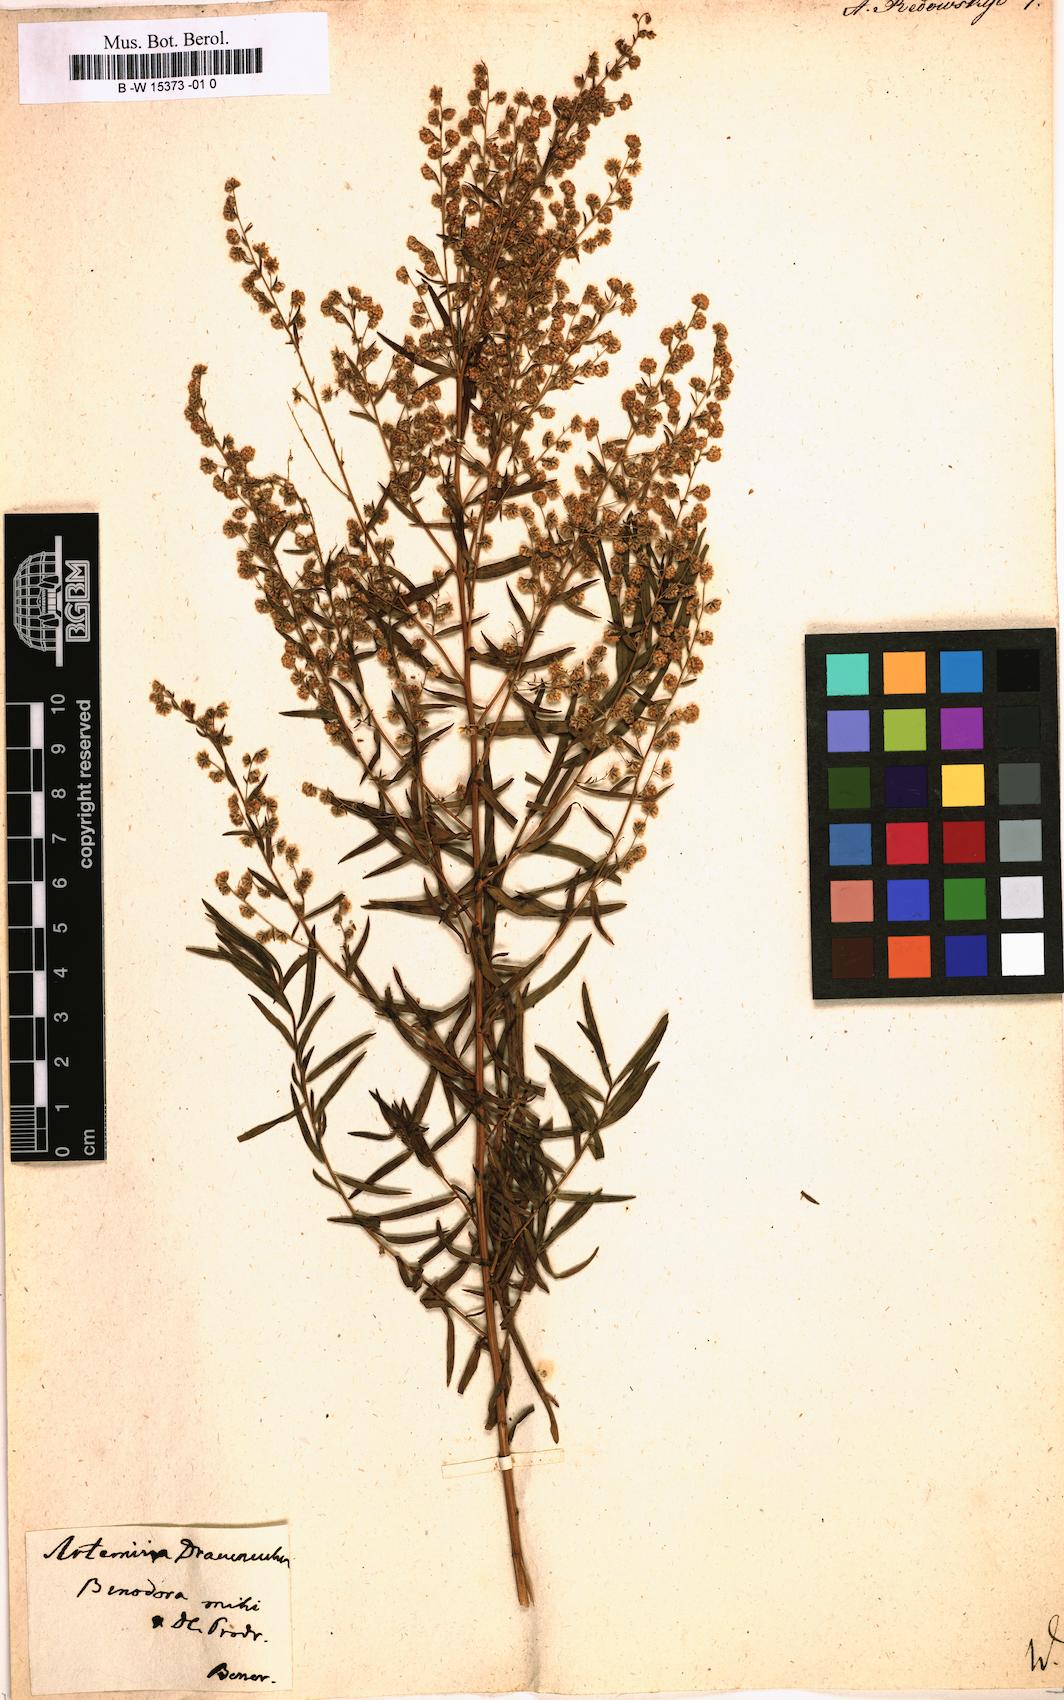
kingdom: Plantae
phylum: Tracheophyta
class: Magnoliopsida
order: Asterales
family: Asteraceae
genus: Artemisia
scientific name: Artemisia dracunculus
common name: Tarragon
